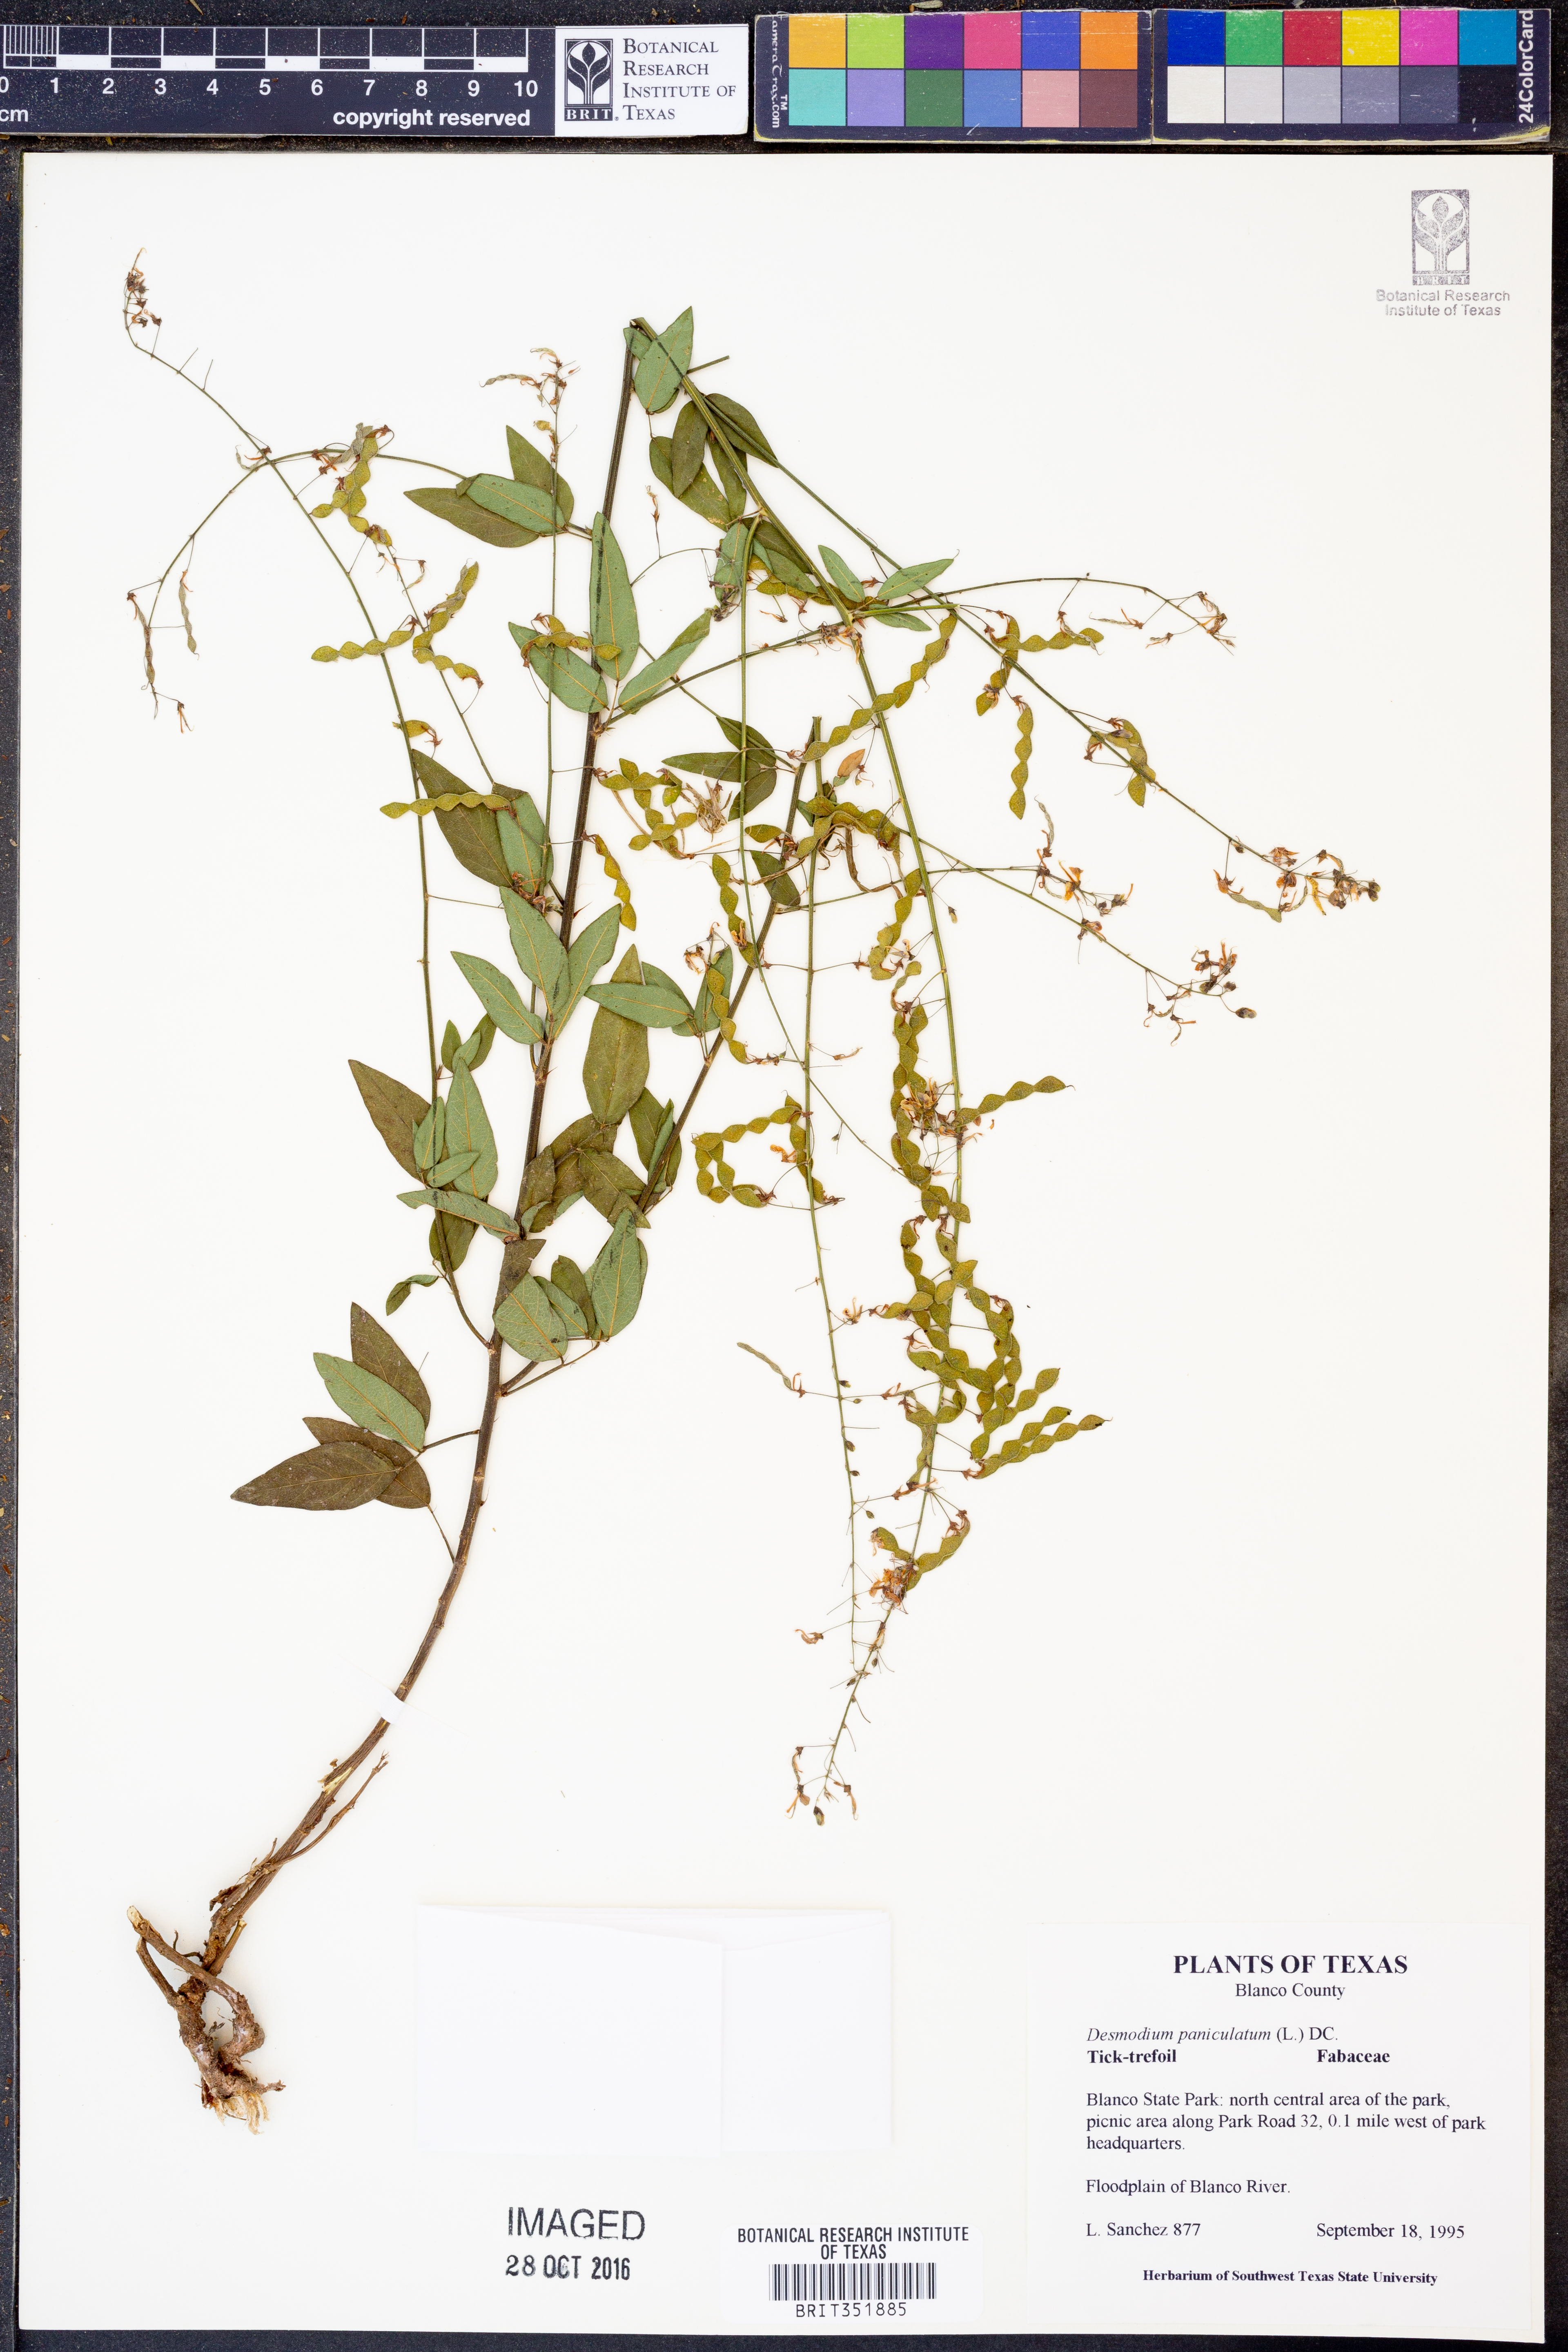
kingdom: Plantae
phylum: Tracheophyta
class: Magnoliopsida
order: Fabales
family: Fabaceae
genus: Desmodium
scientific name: Desmodium paniculatum
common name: Panicled tick-clover
